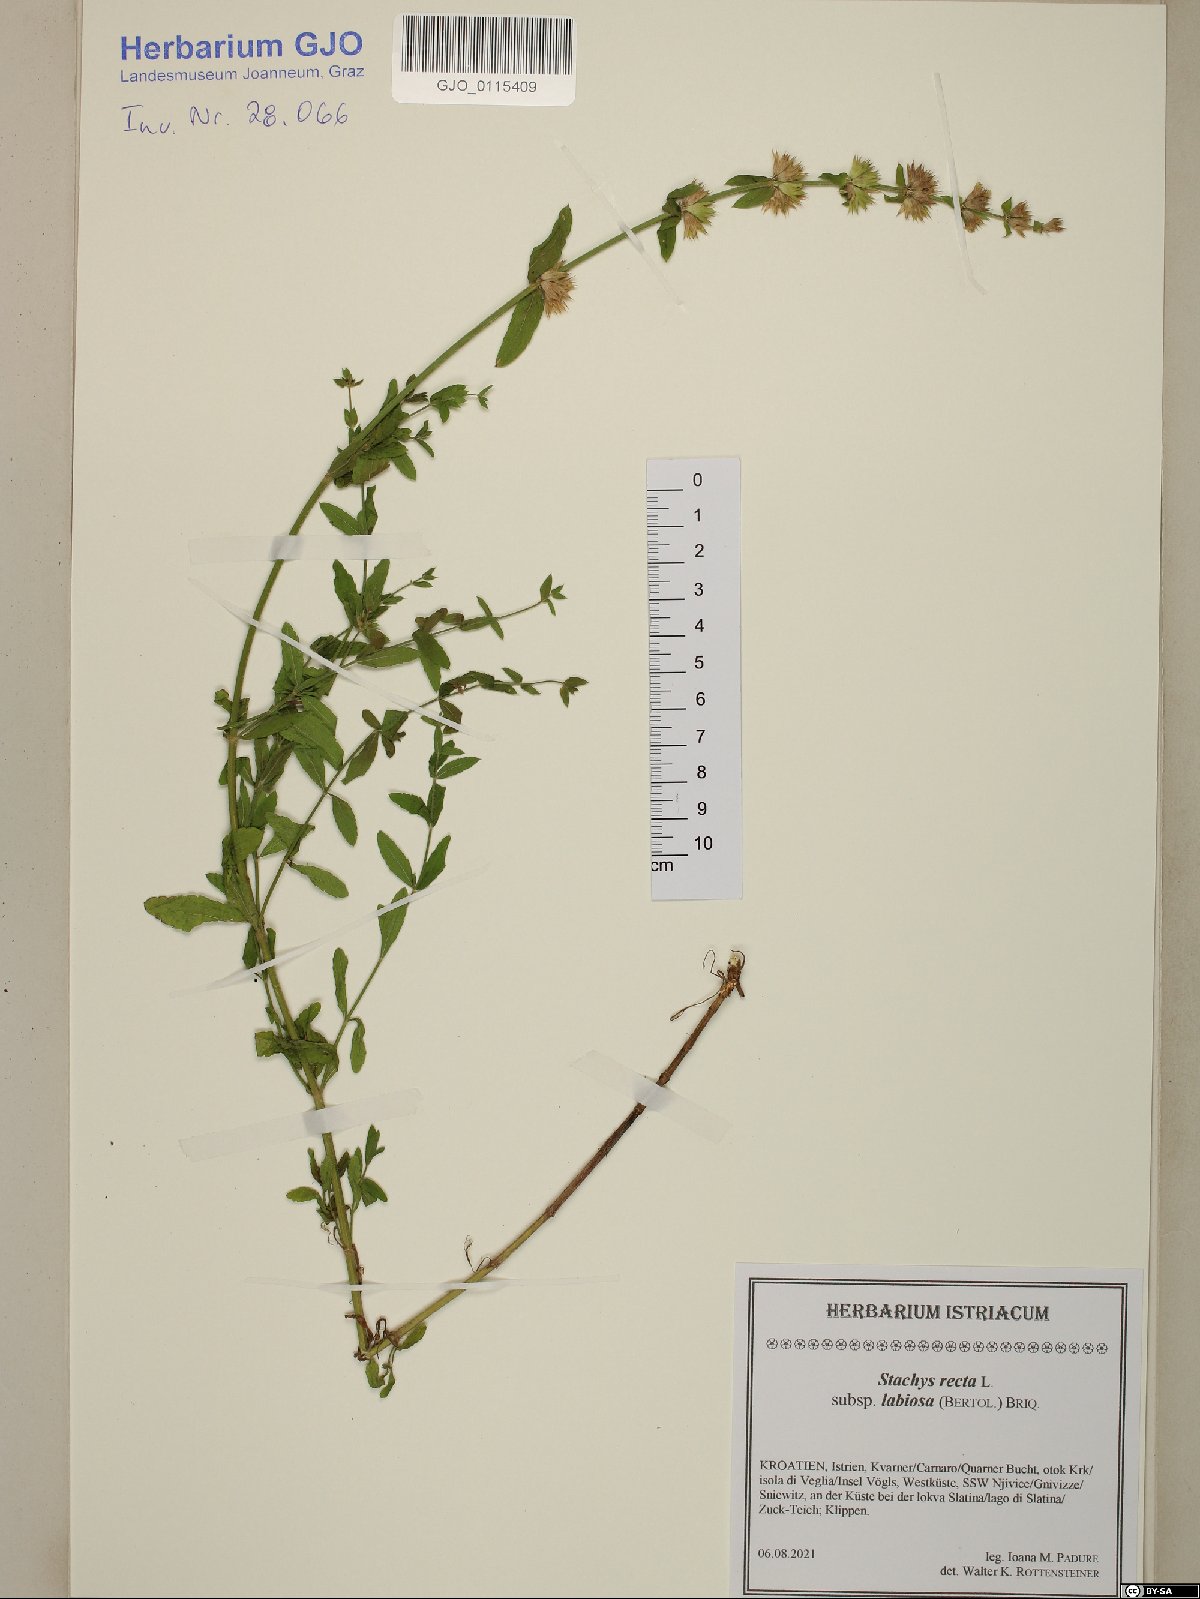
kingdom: Plantae
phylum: Tracheophyta
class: Magnoliopsida
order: Lamiales
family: Lamiaceae
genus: Stachys
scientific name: Stachys recta
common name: Perennial yellow-woundwort
